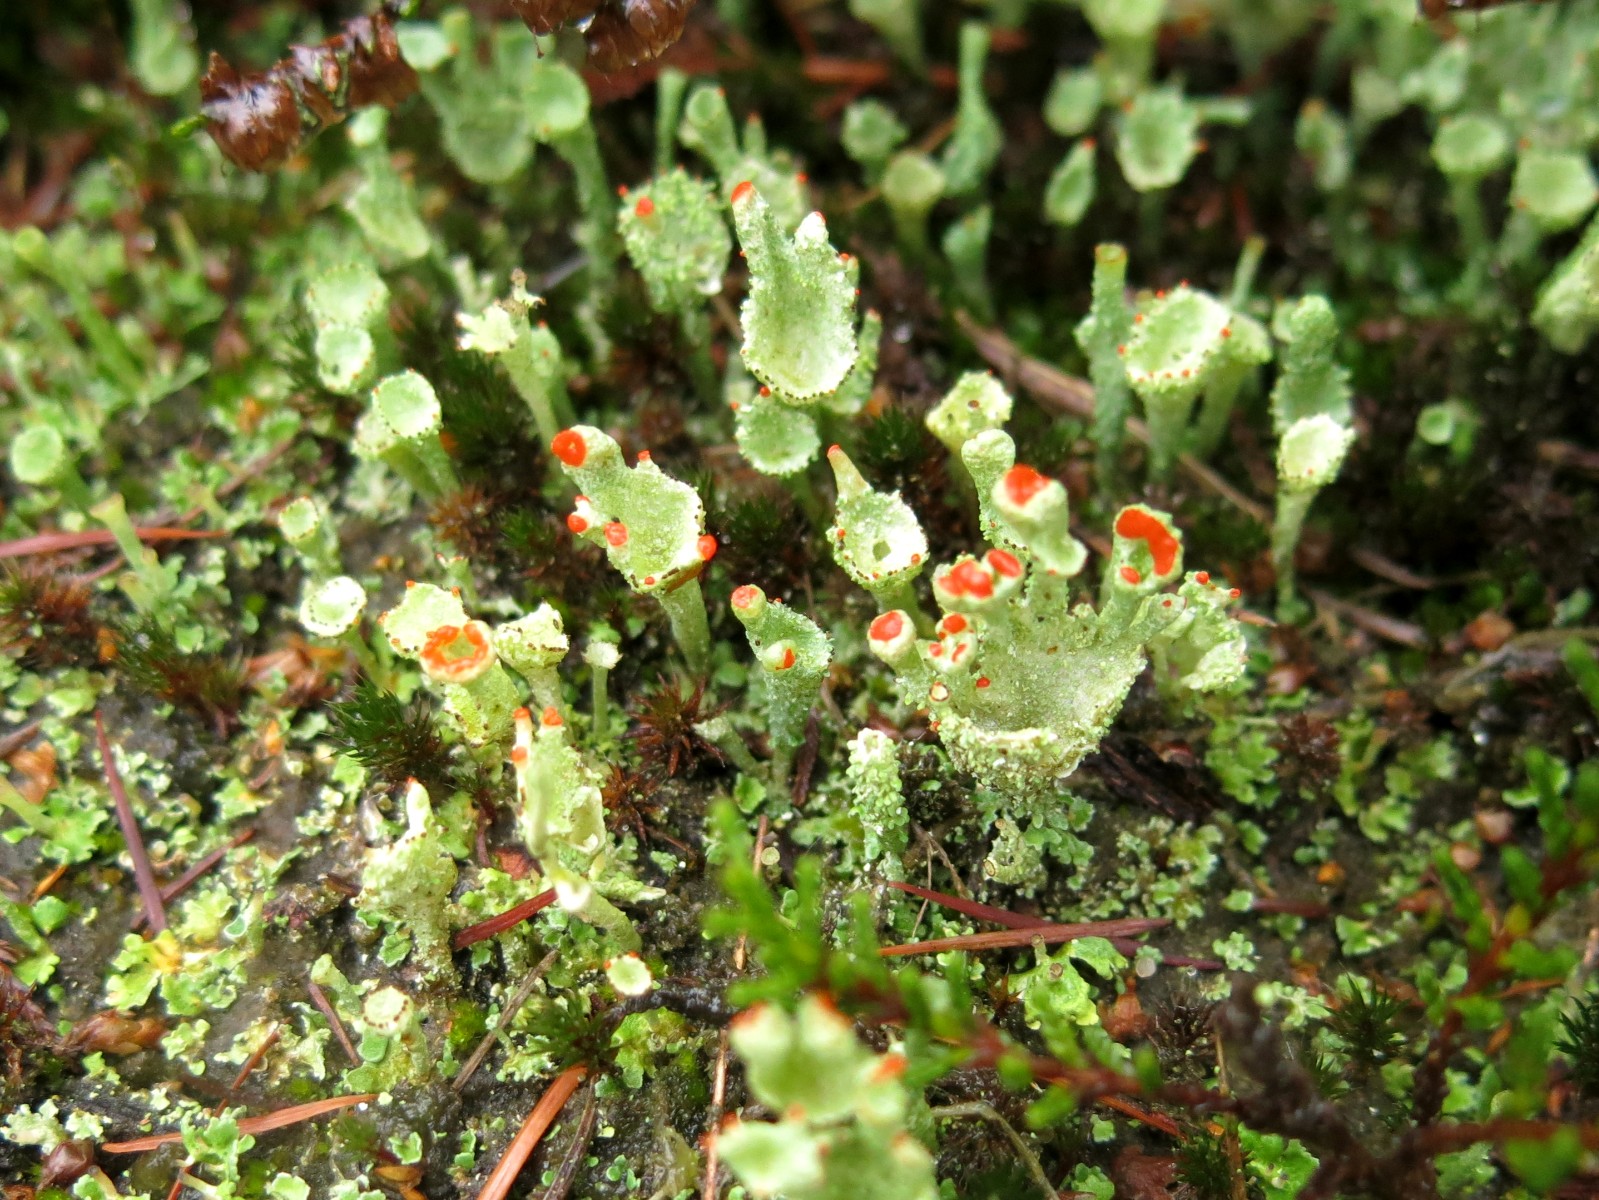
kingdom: Fungi
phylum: Ascomycota
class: Lecanoromycetes
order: Lecanorales
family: Cladoniaceae
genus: Cladonia
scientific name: Cladonia diversa
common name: rød bægerlav
